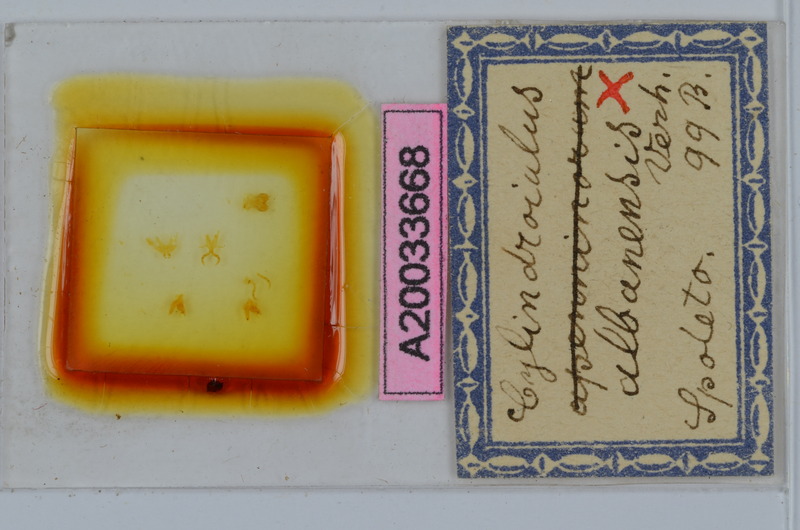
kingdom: Animalia
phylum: Arthropoda
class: Diplopoda
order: Julida
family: Julidae
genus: Cylindroiulus
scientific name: Cylindroiulus albanensis
